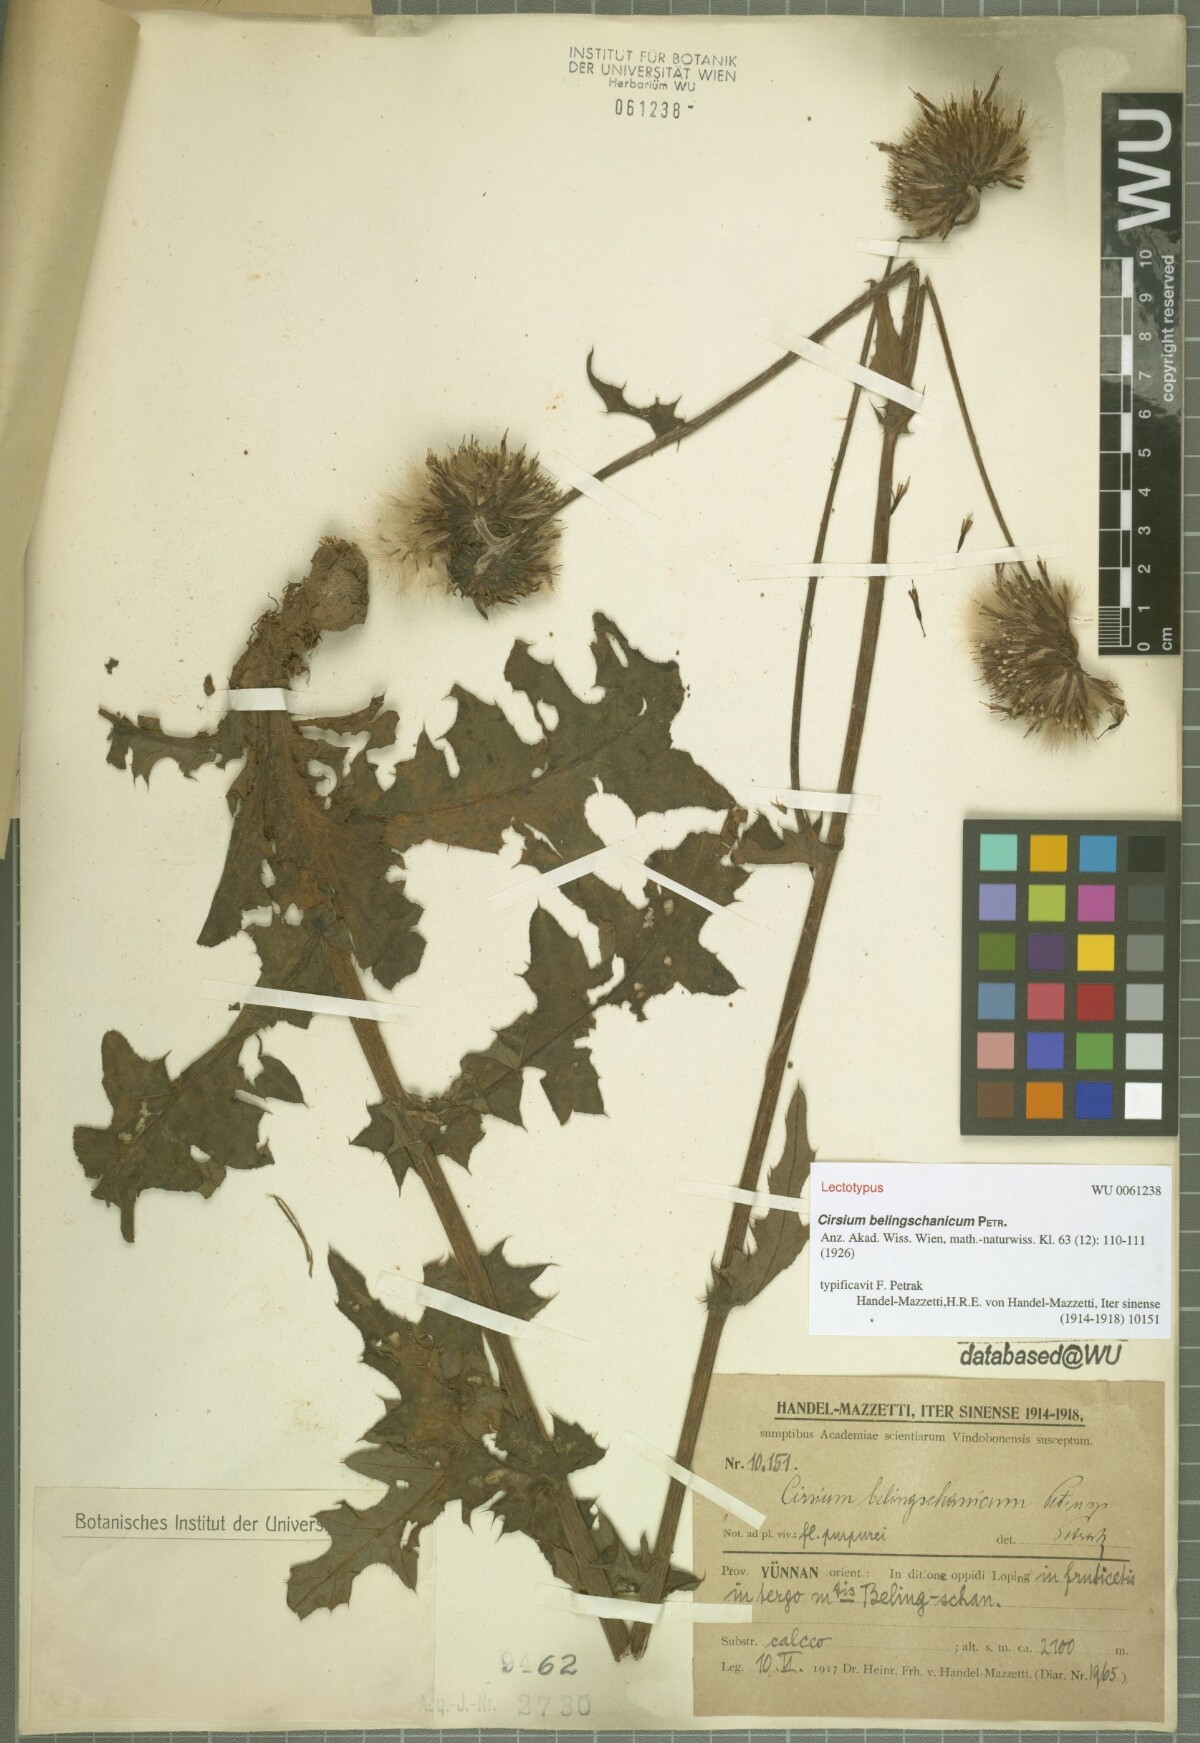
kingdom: Plantae
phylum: Tracheophyta
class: Magnoliopsida
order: Asterales
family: Asteraceae
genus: Cirsium
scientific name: Cirsium japonicum
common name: Japanese thistle
